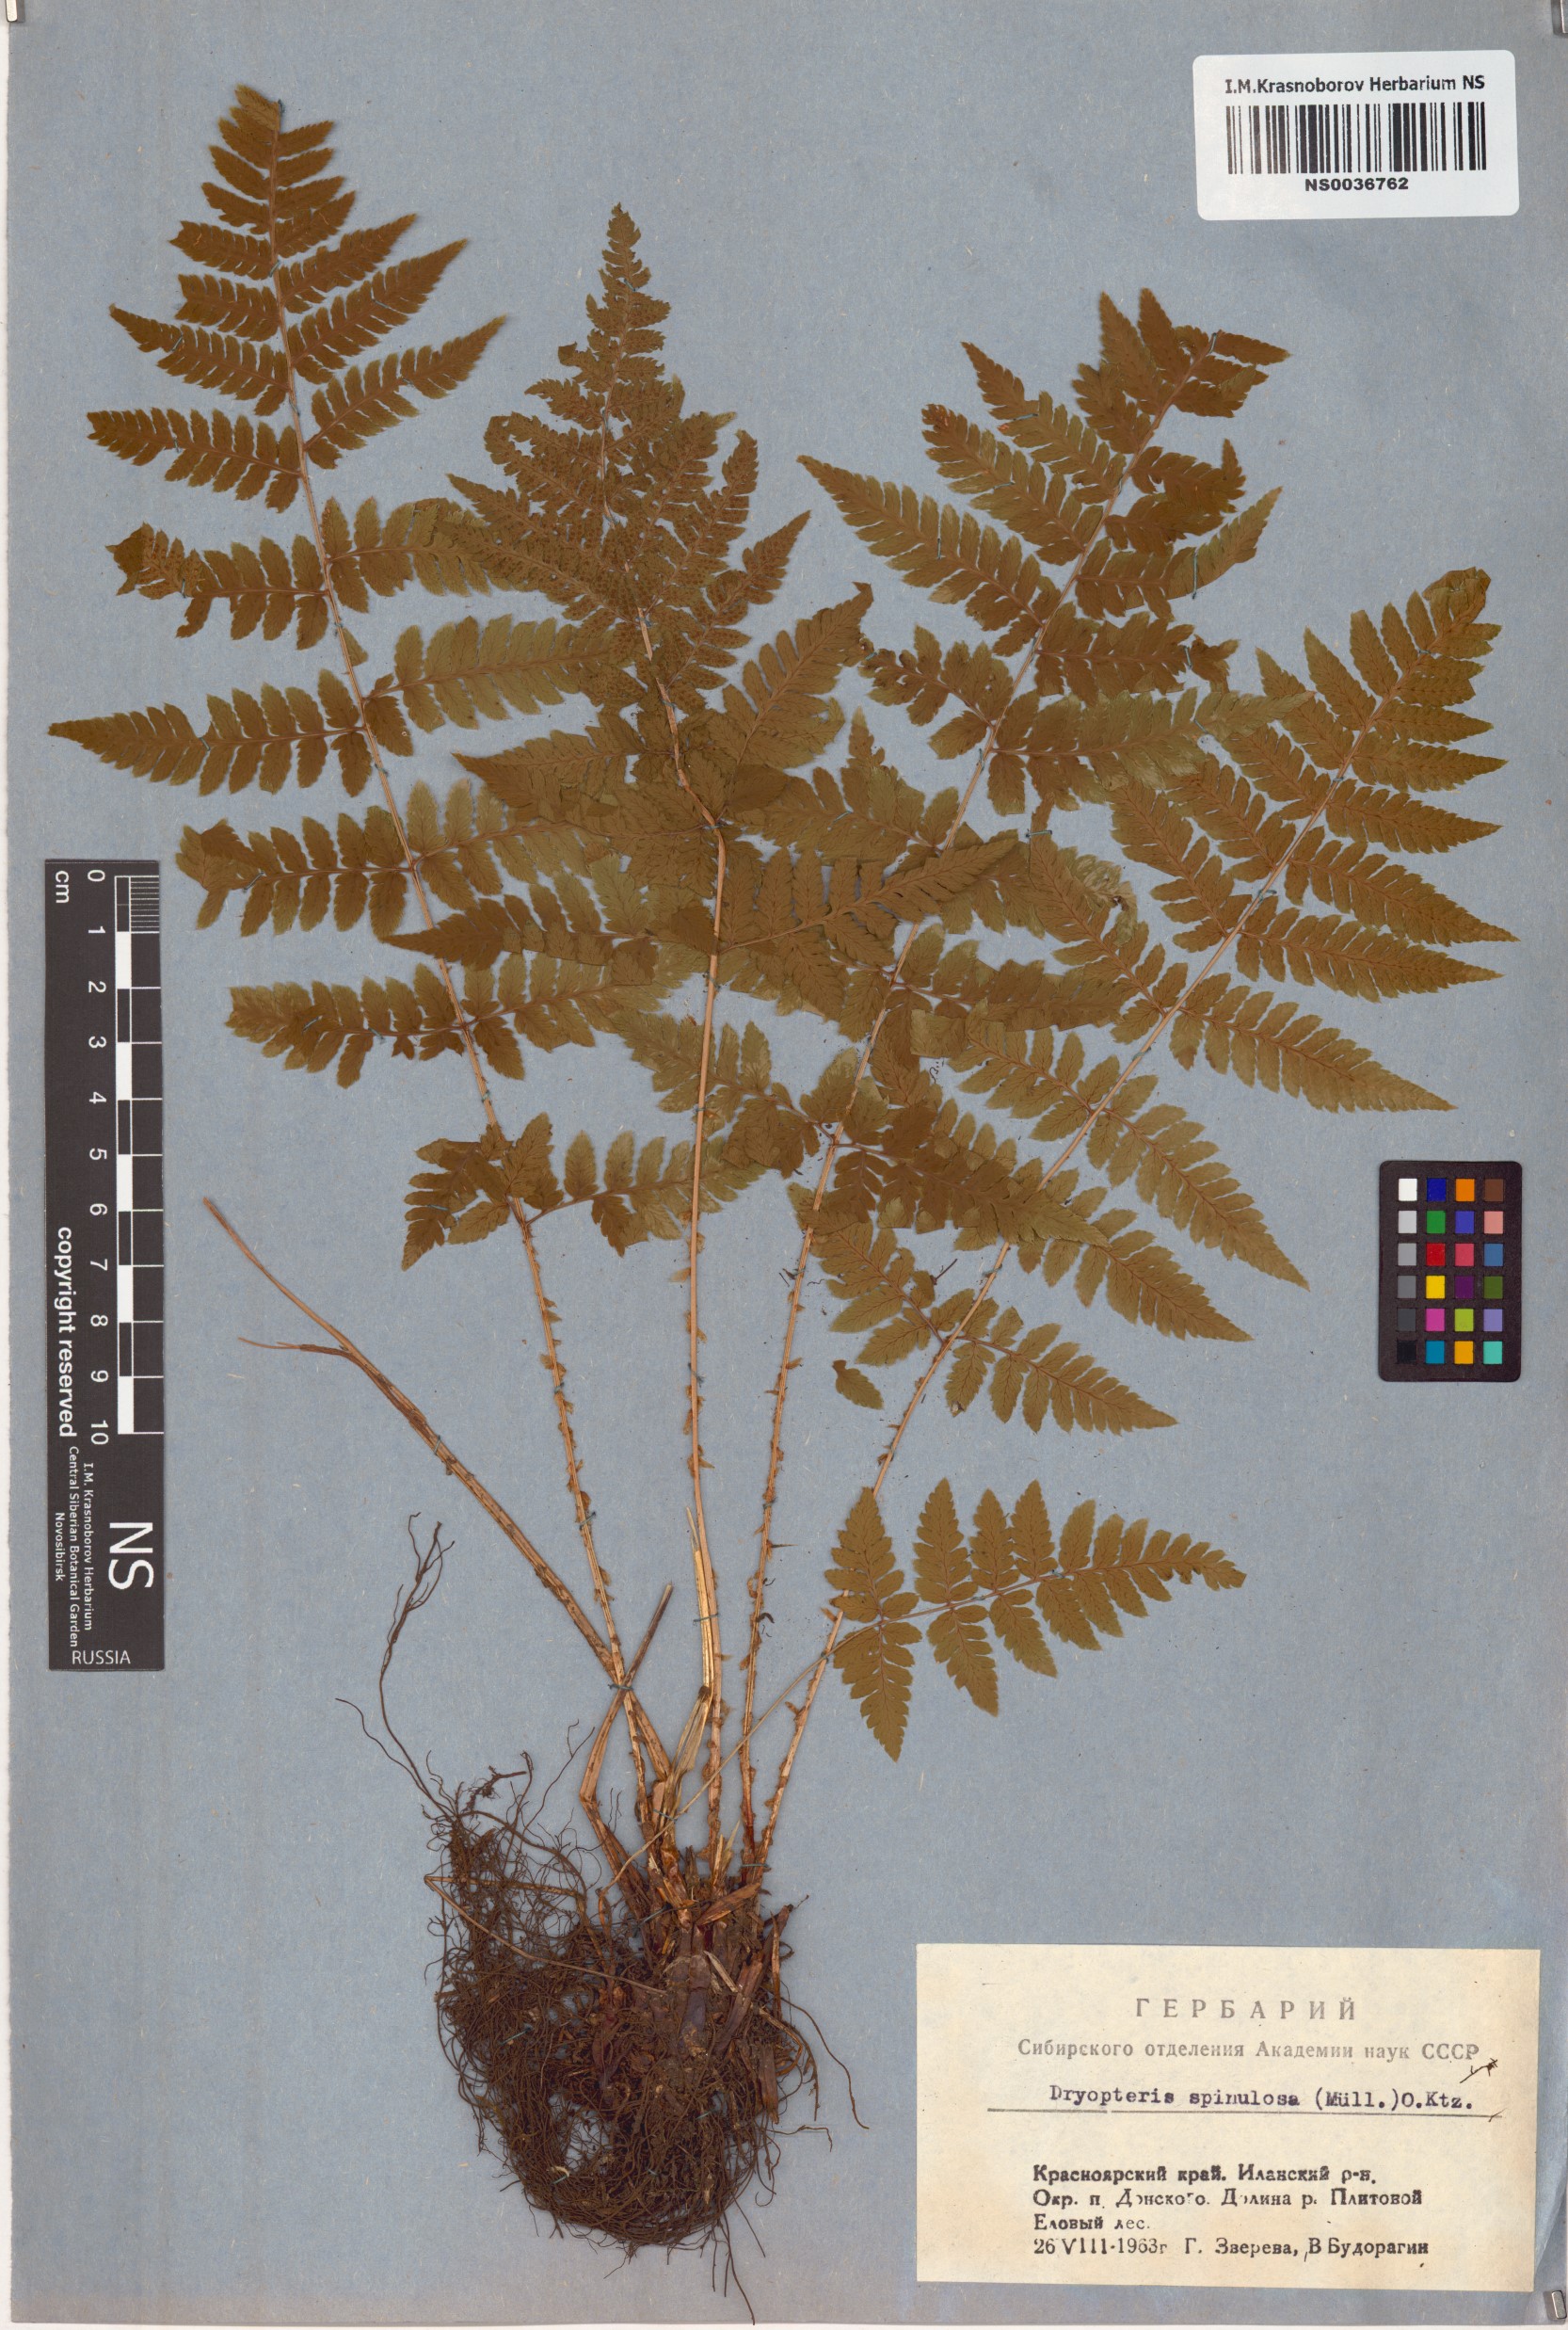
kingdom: Plantae
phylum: Tracheophyta
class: Polypodiopsida
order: Polypodiales
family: Dryopteridaceae
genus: Dryopteris
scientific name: Dryopteris carthusiana
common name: Narrow buckler-fern
